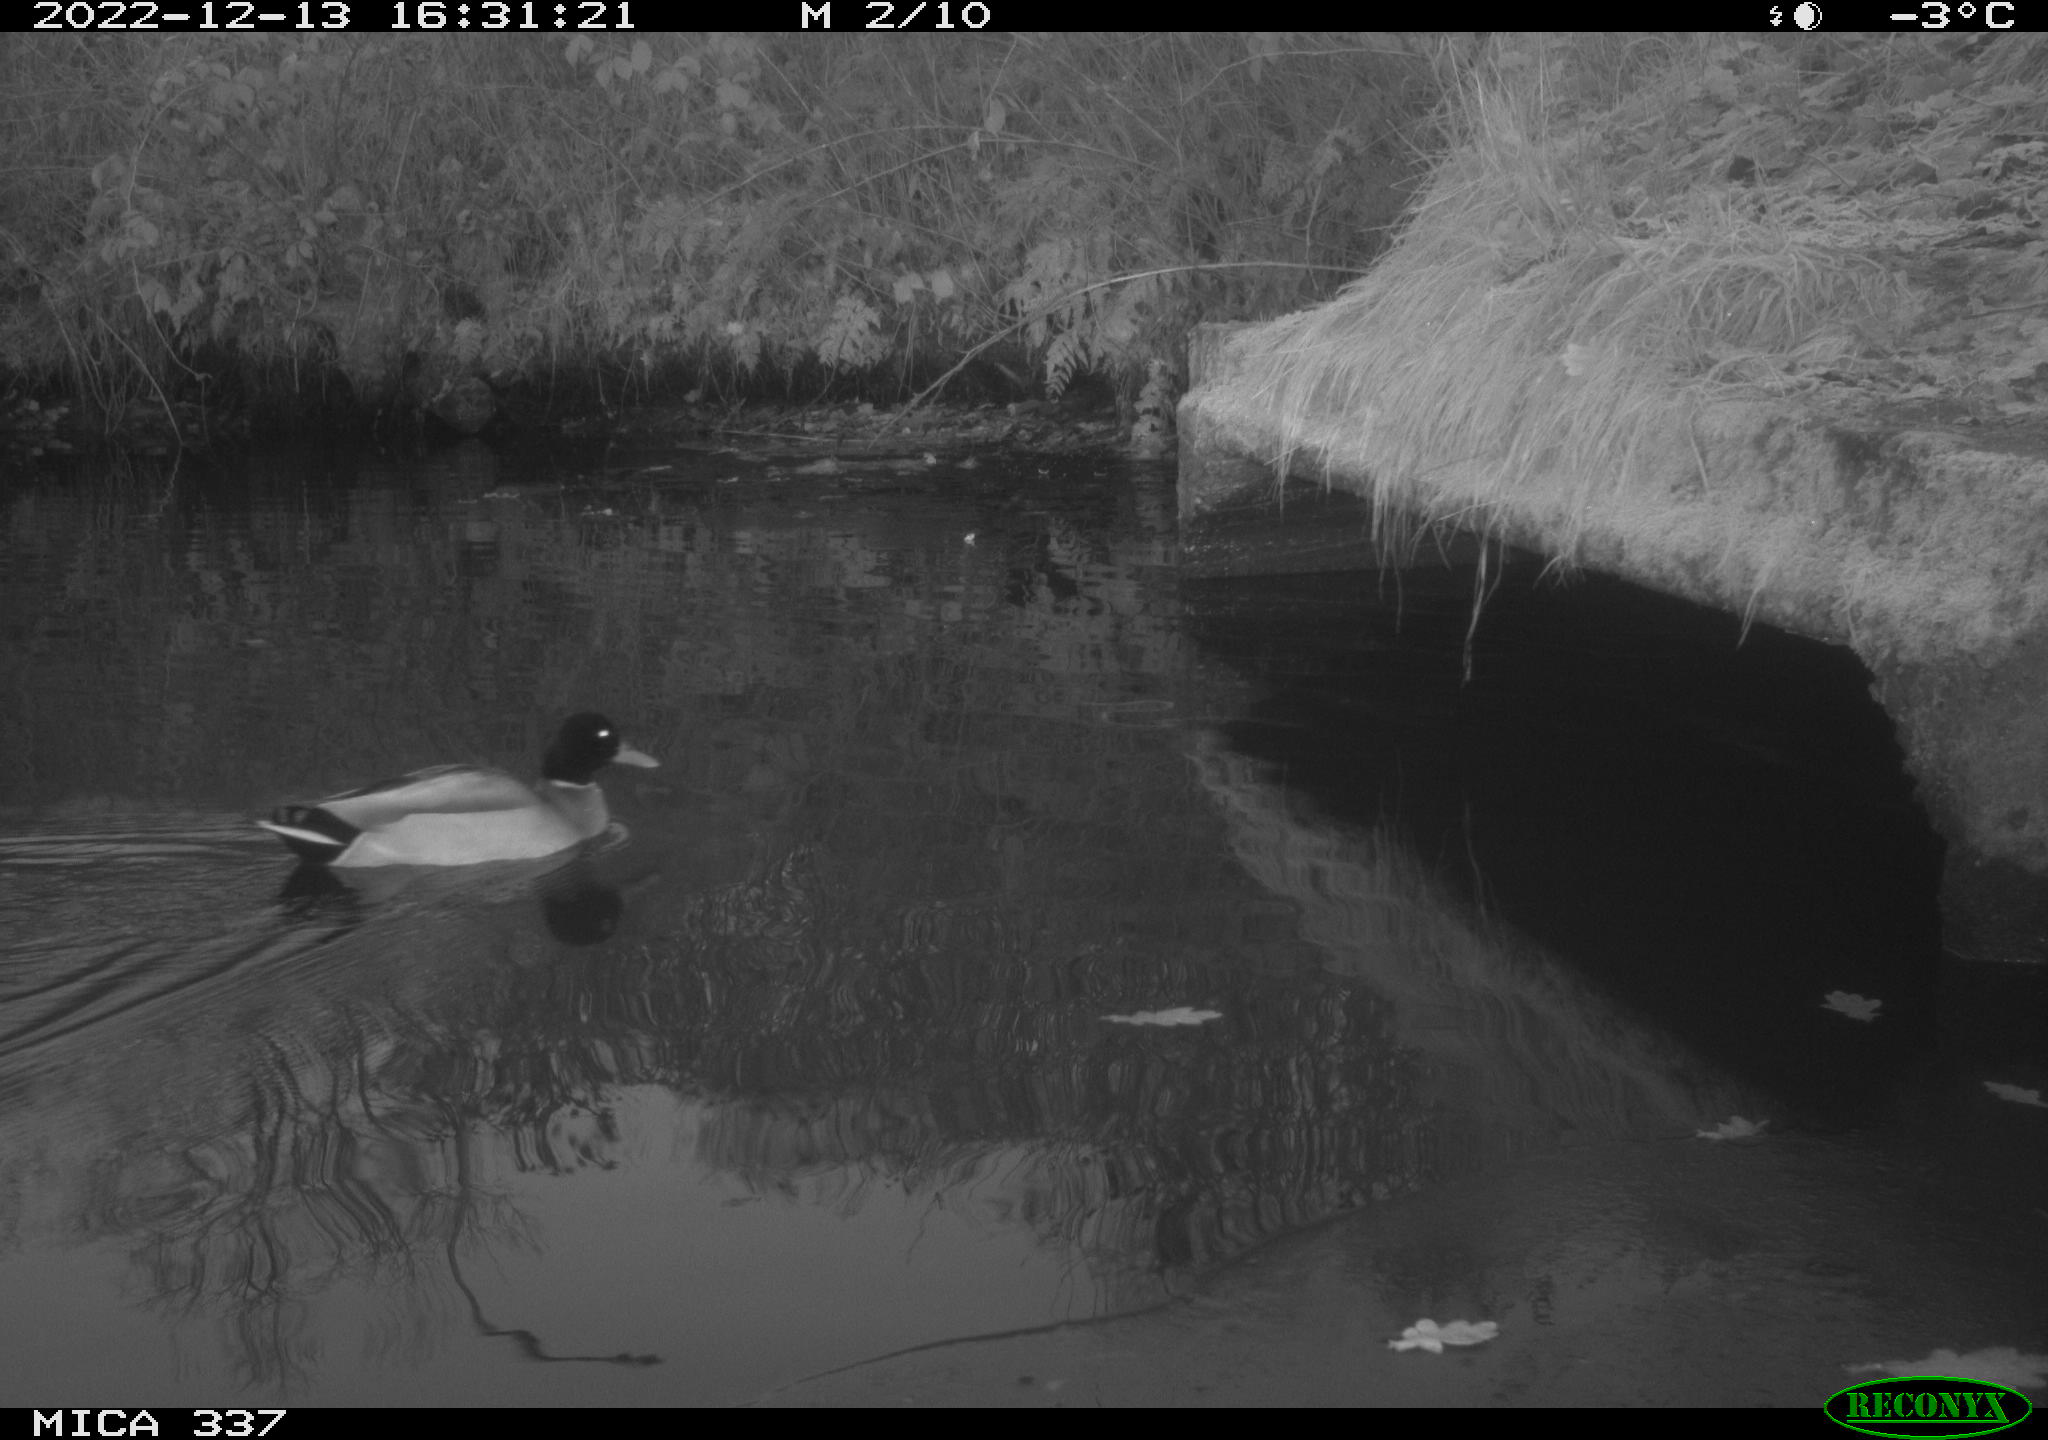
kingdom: Animalia
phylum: Chordata
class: Aves
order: Anseriformes
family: Anatidae
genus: Anas
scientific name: Anas
